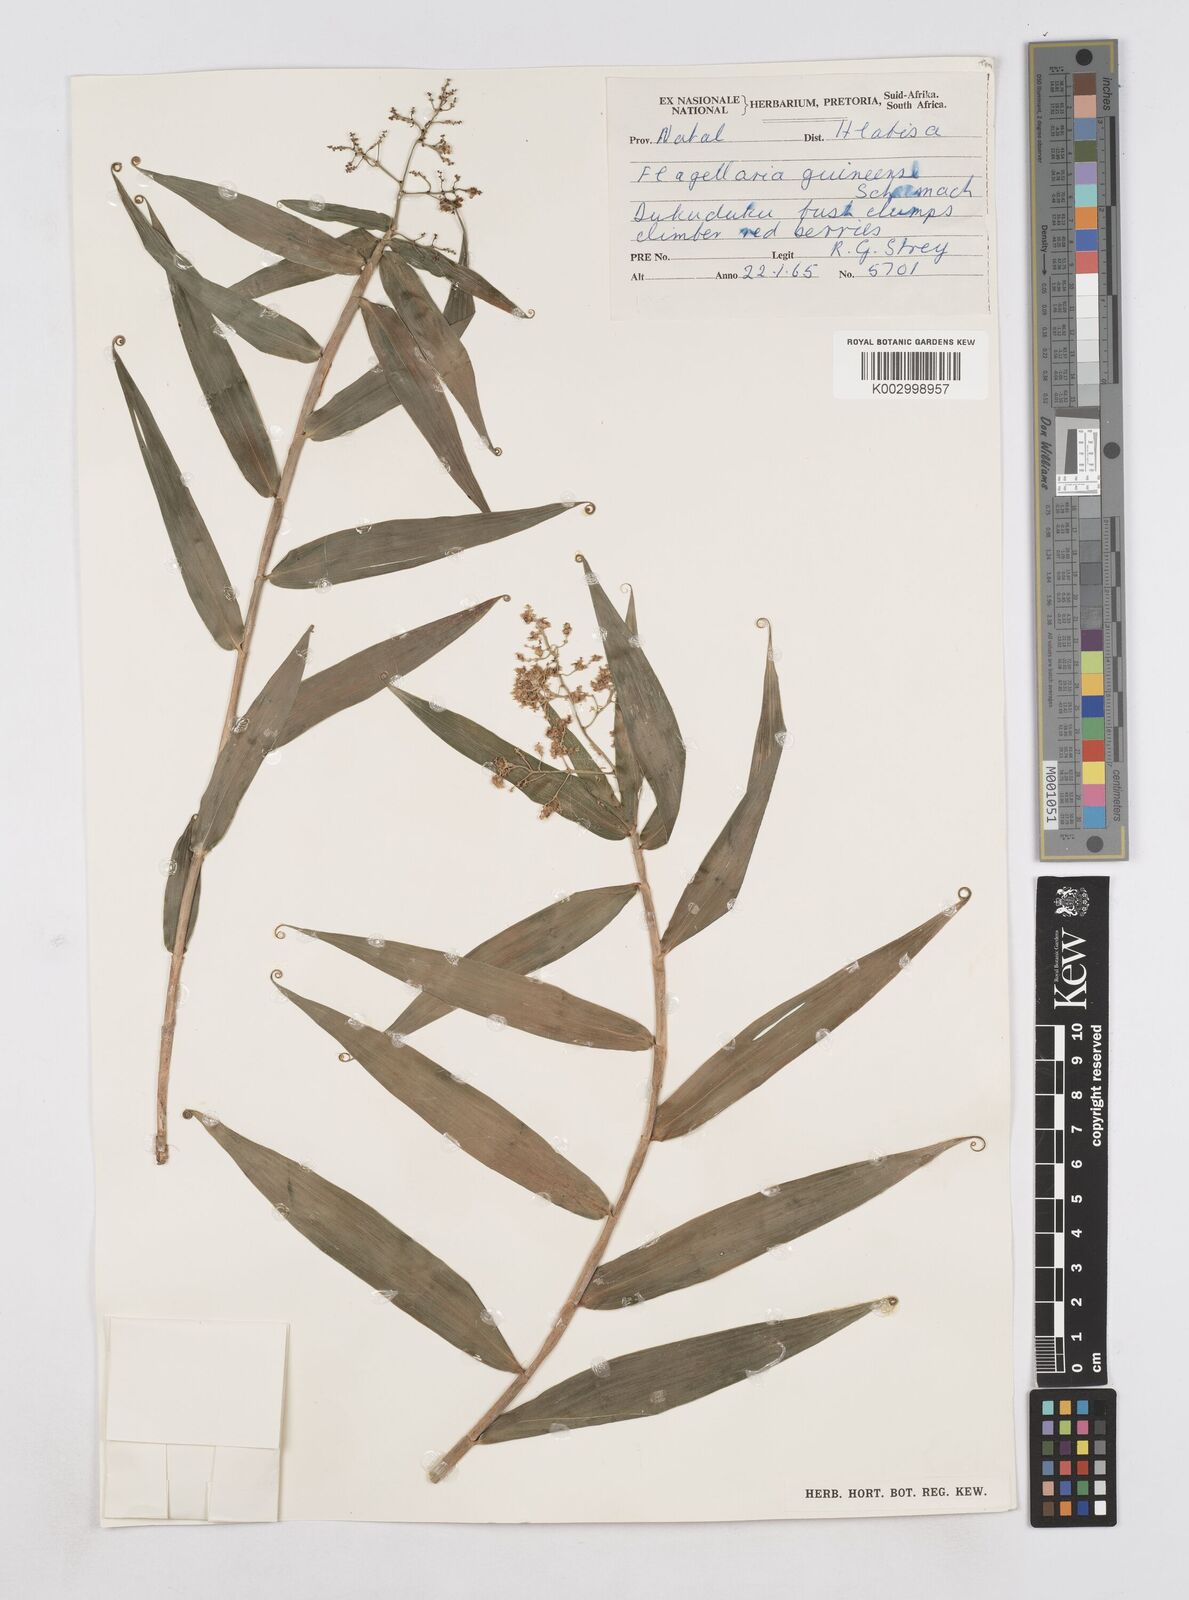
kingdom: Plantae
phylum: Tracheophyta
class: Liliopsida
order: Poales
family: Flagellariaceae
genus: Flagellaria
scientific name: Flagellaria guineensis
